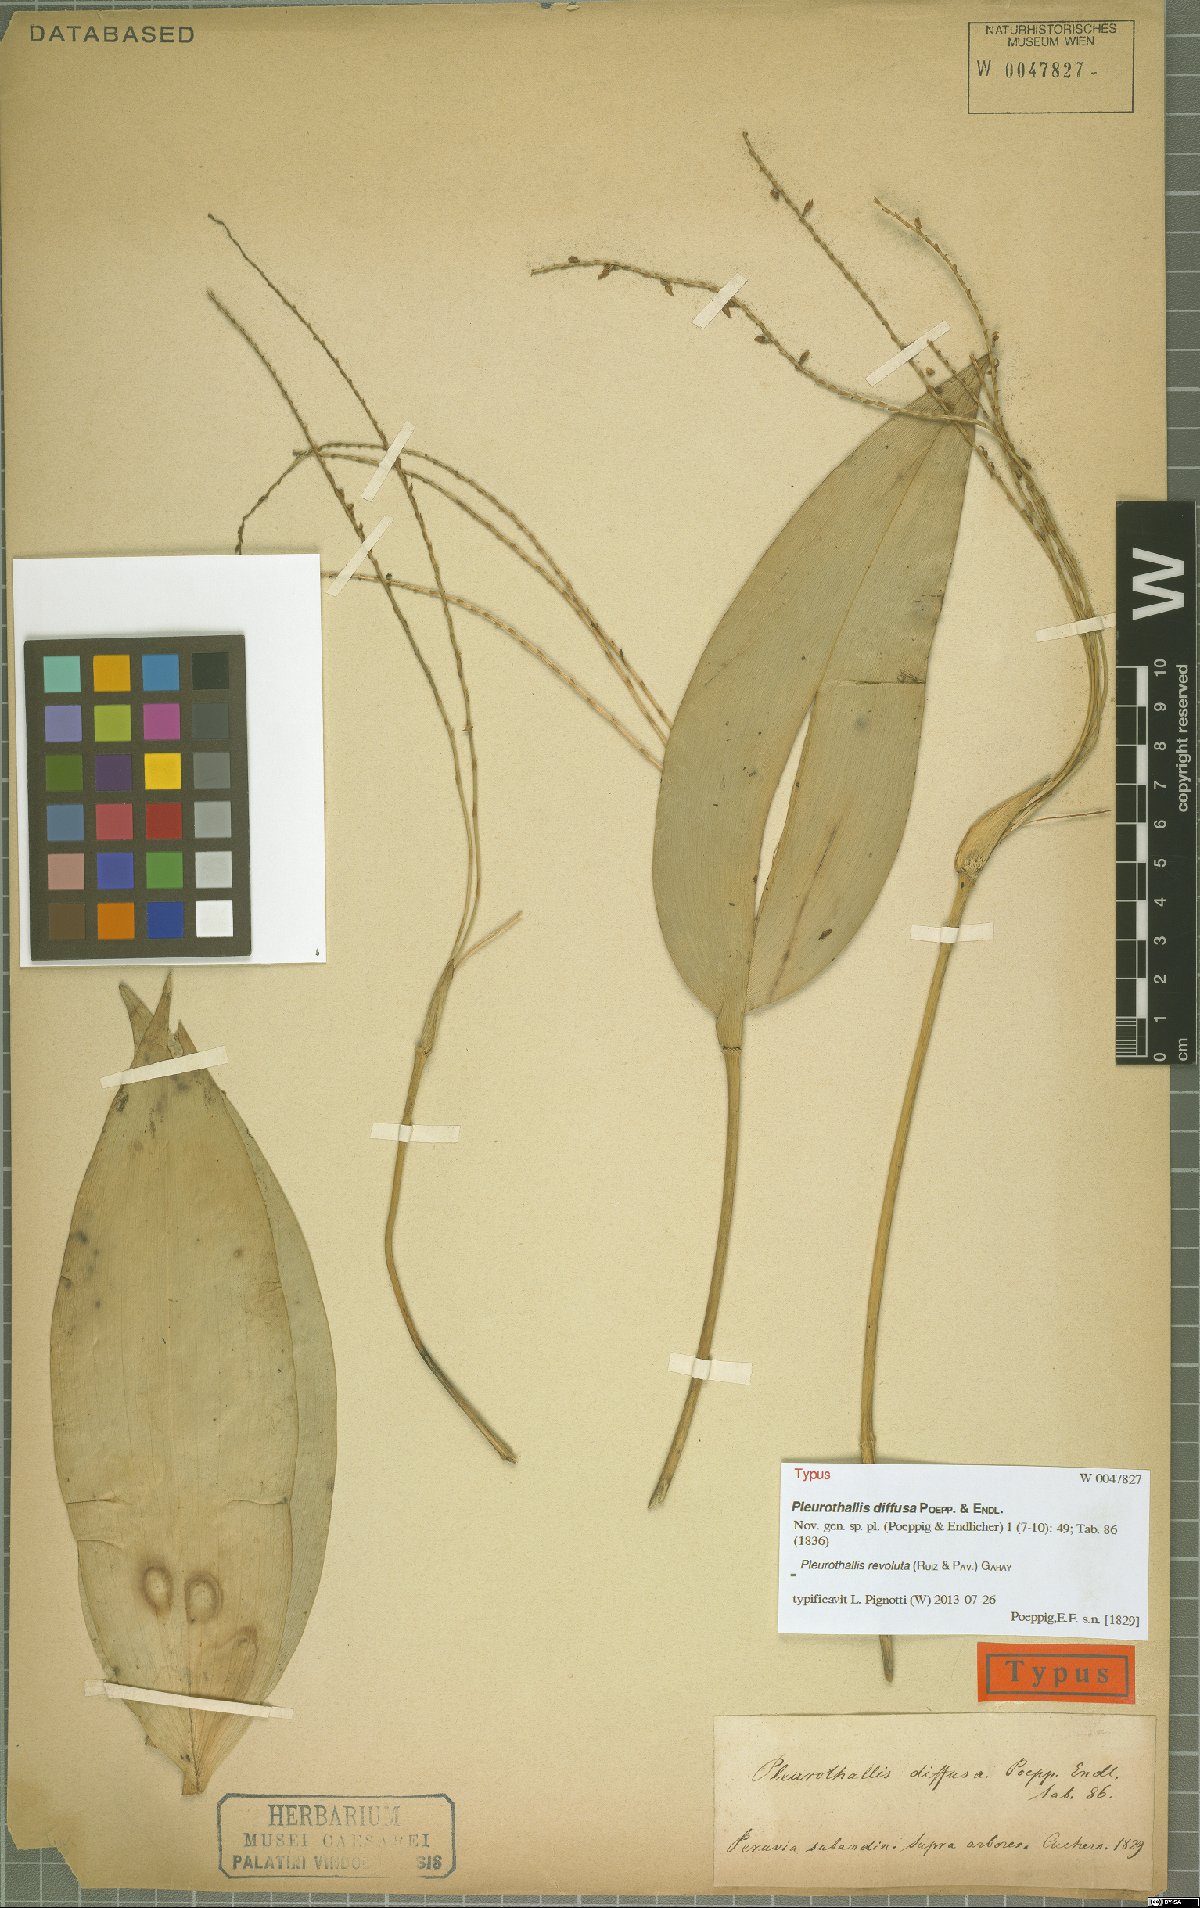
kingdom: Plantae
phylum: Tracheophyta
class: Liliopsida
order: Asparagales
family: Orchidaceae
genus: Pleurothallis
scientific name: Pleurothallis revoluta
